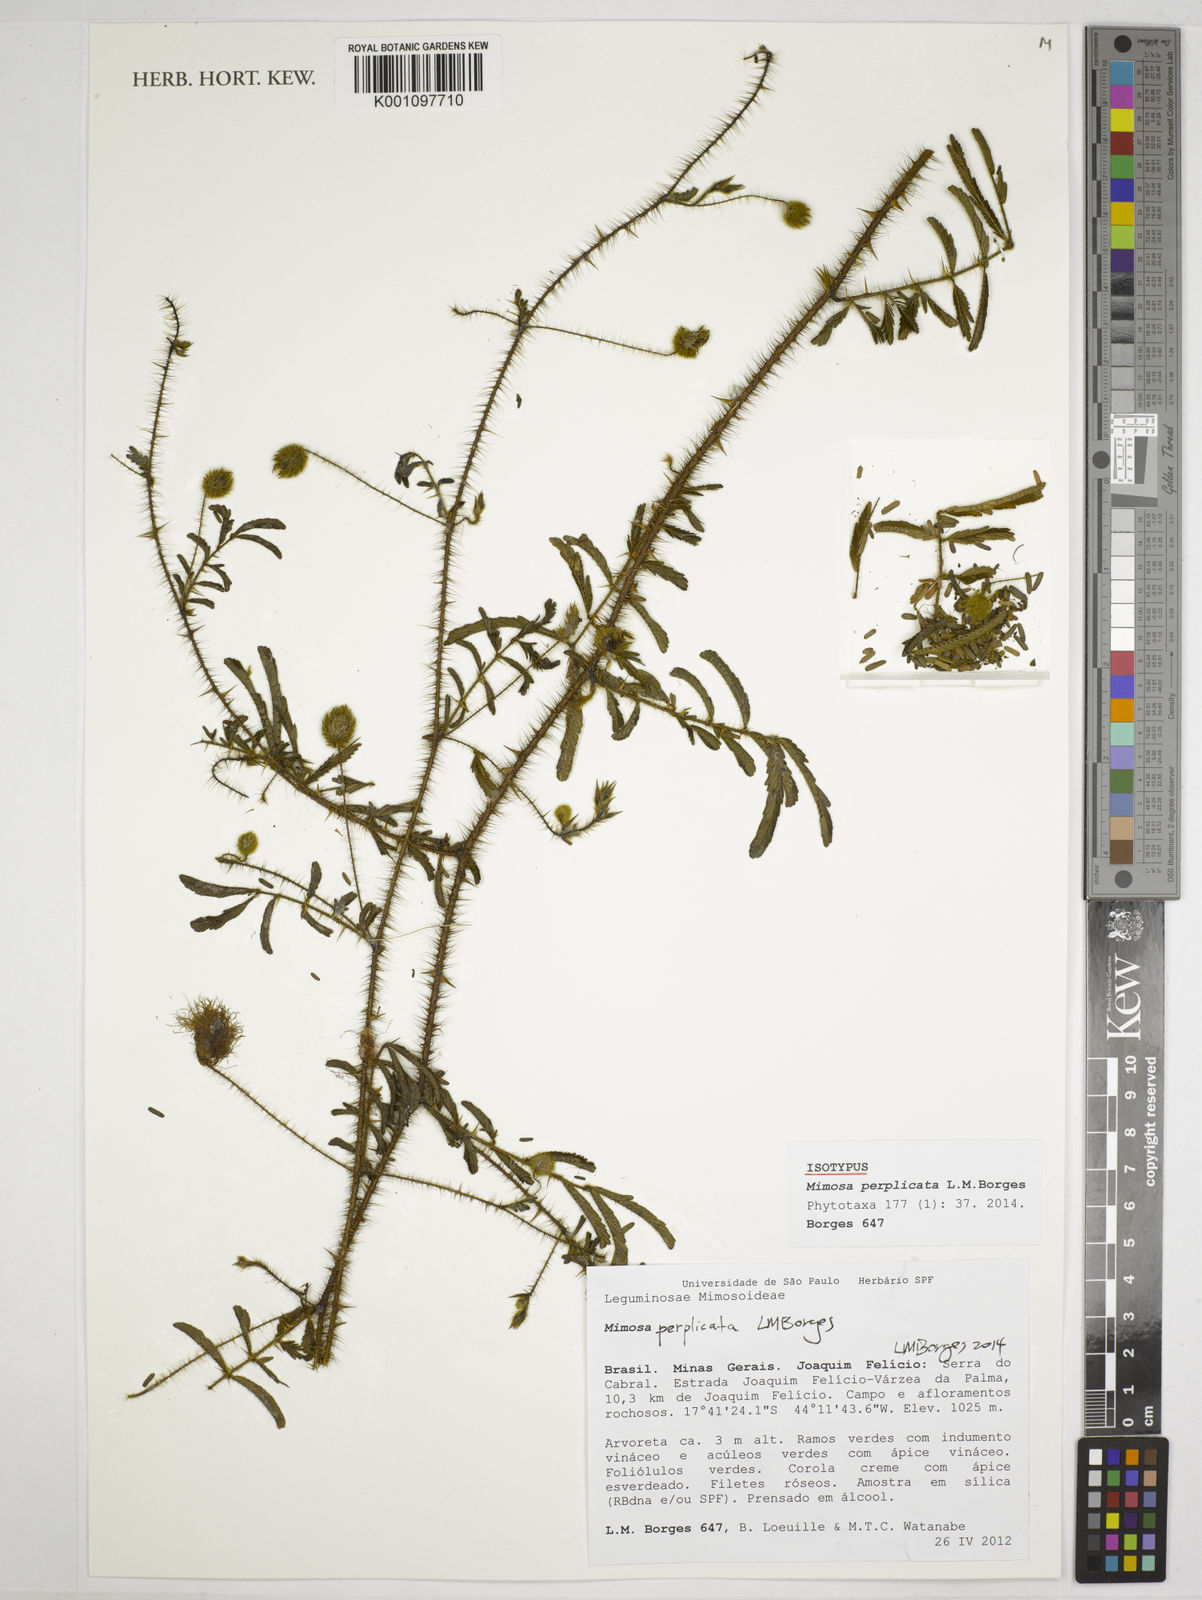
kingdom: Plantae
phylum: Tracheophyta
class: Magnoliopsida
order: Fabales
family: Fabaceae
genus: Mimosa
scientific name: Mimosa perplicata
